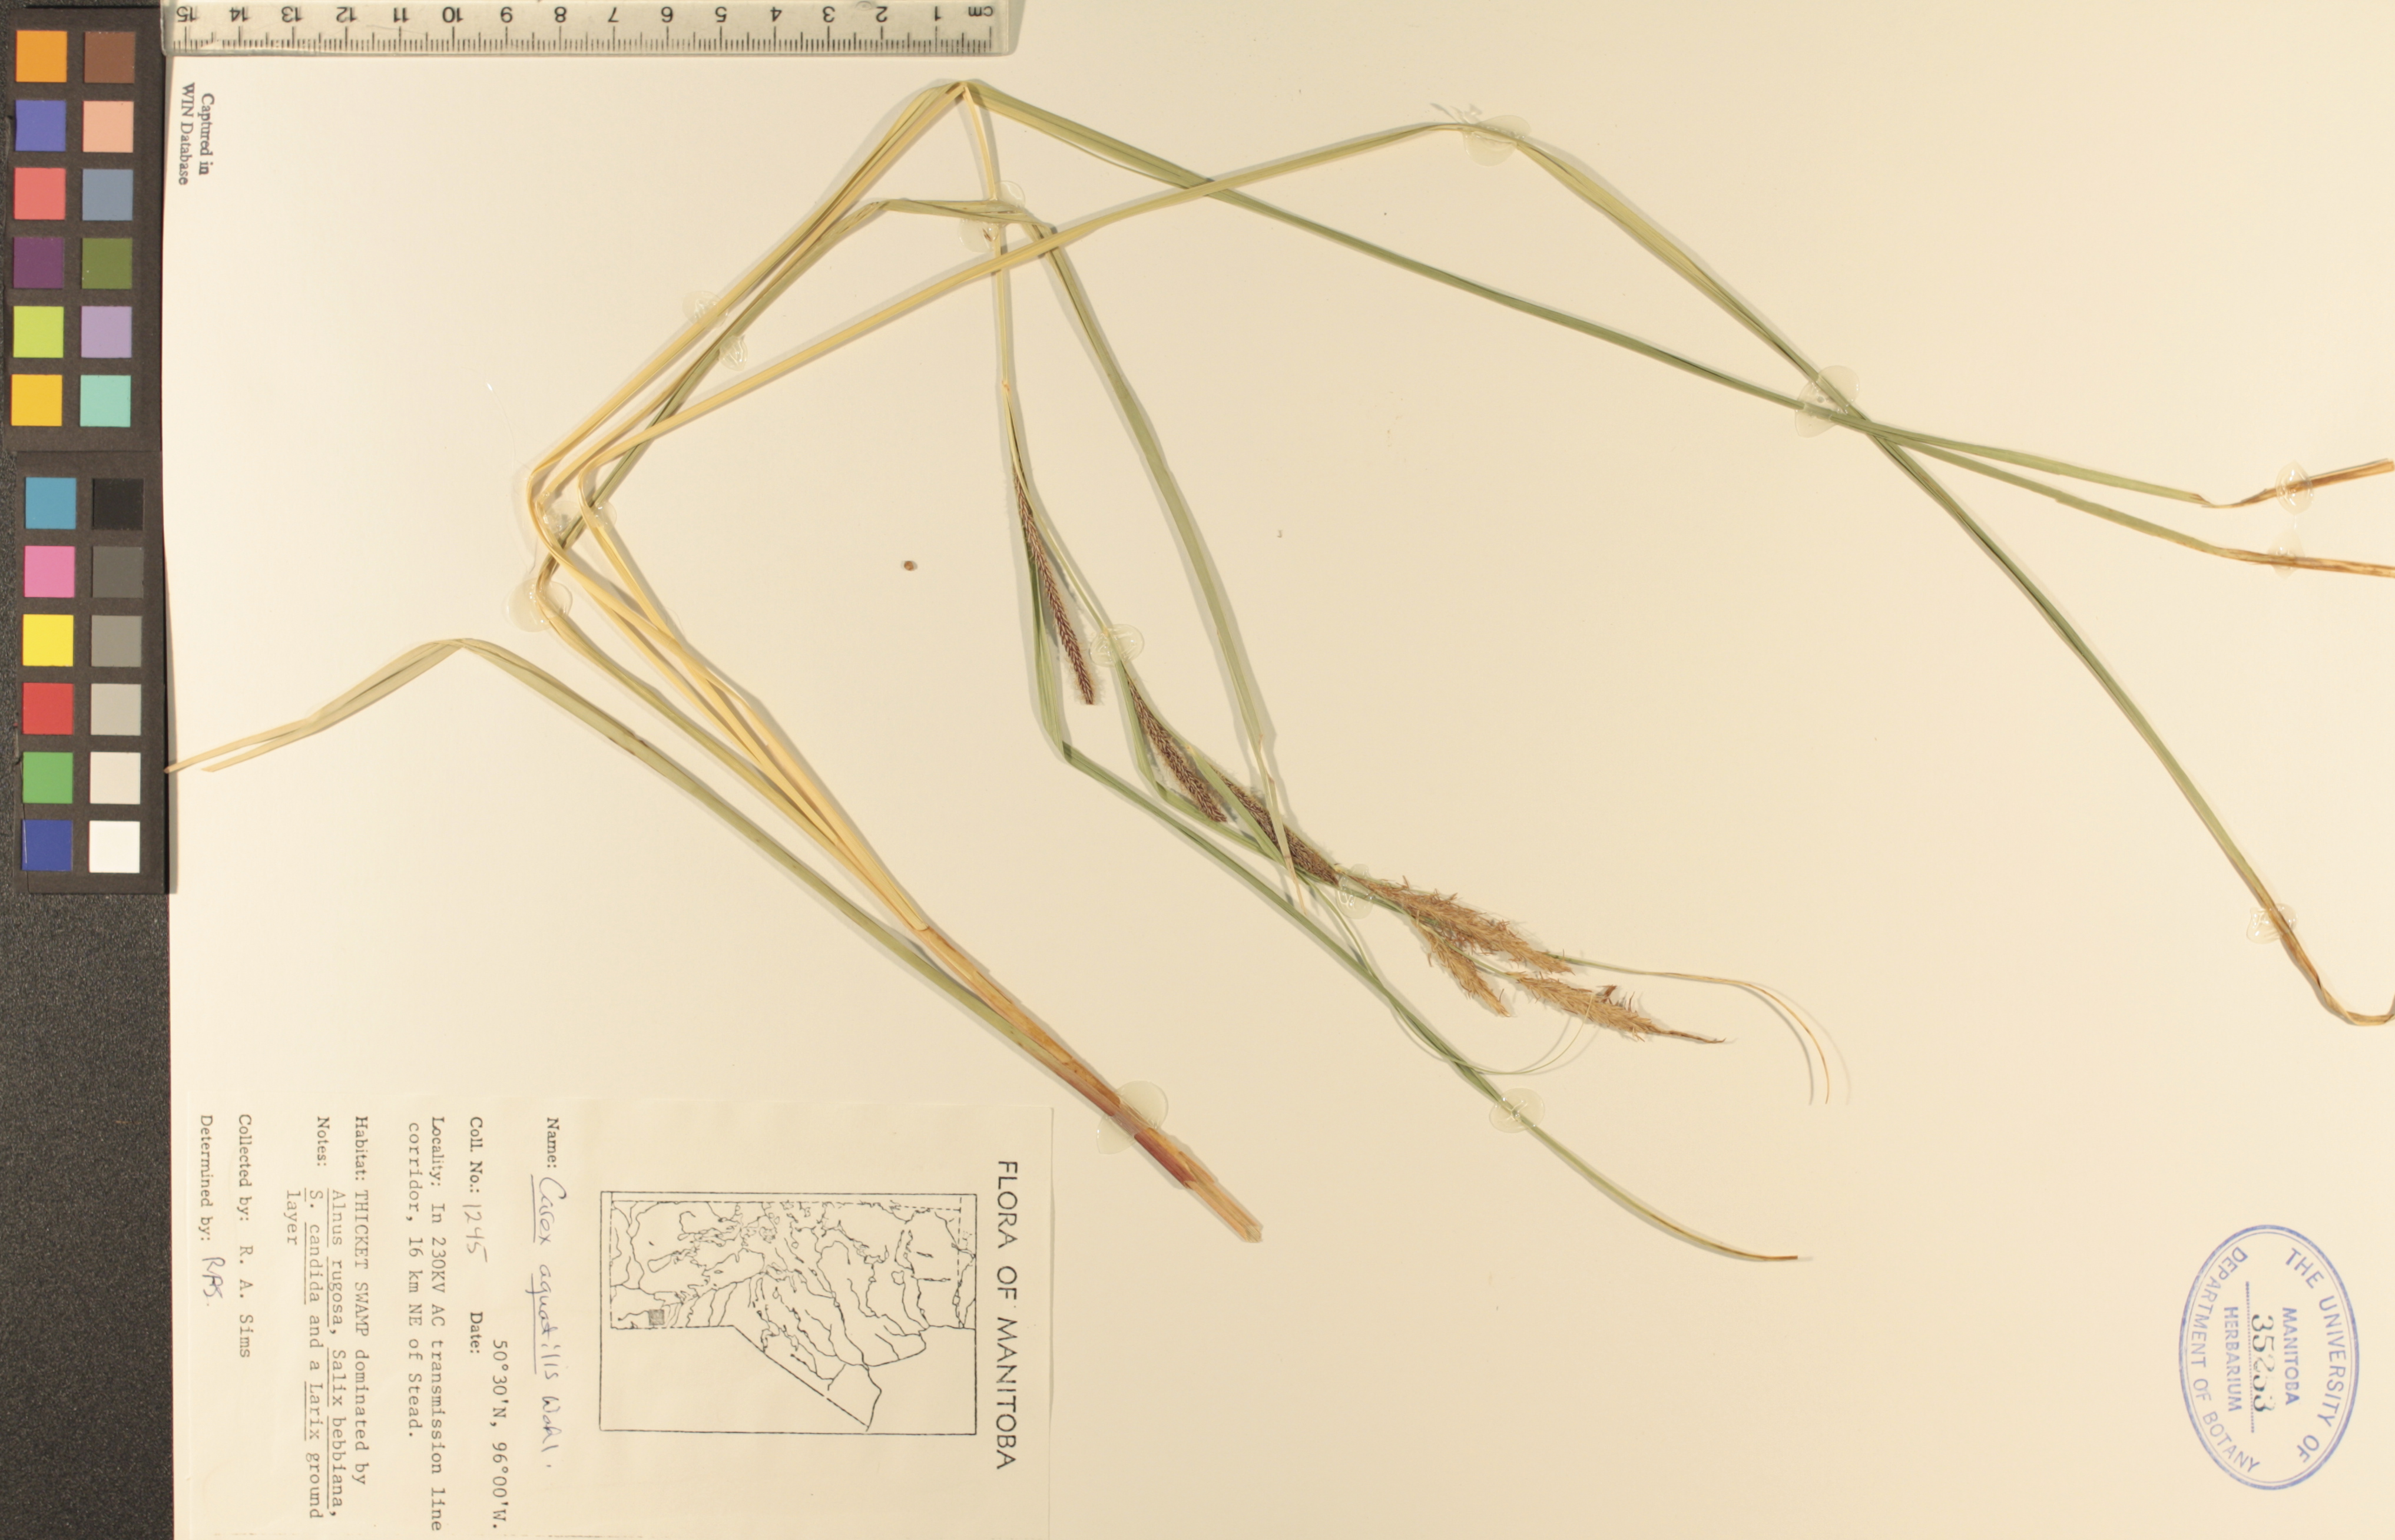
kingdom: Plantae
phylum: Tracheophyta
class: Liliopsida
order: Poales
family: Cyperaceae
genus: Carex
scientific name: Carex aquatilis
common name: Water sedge
